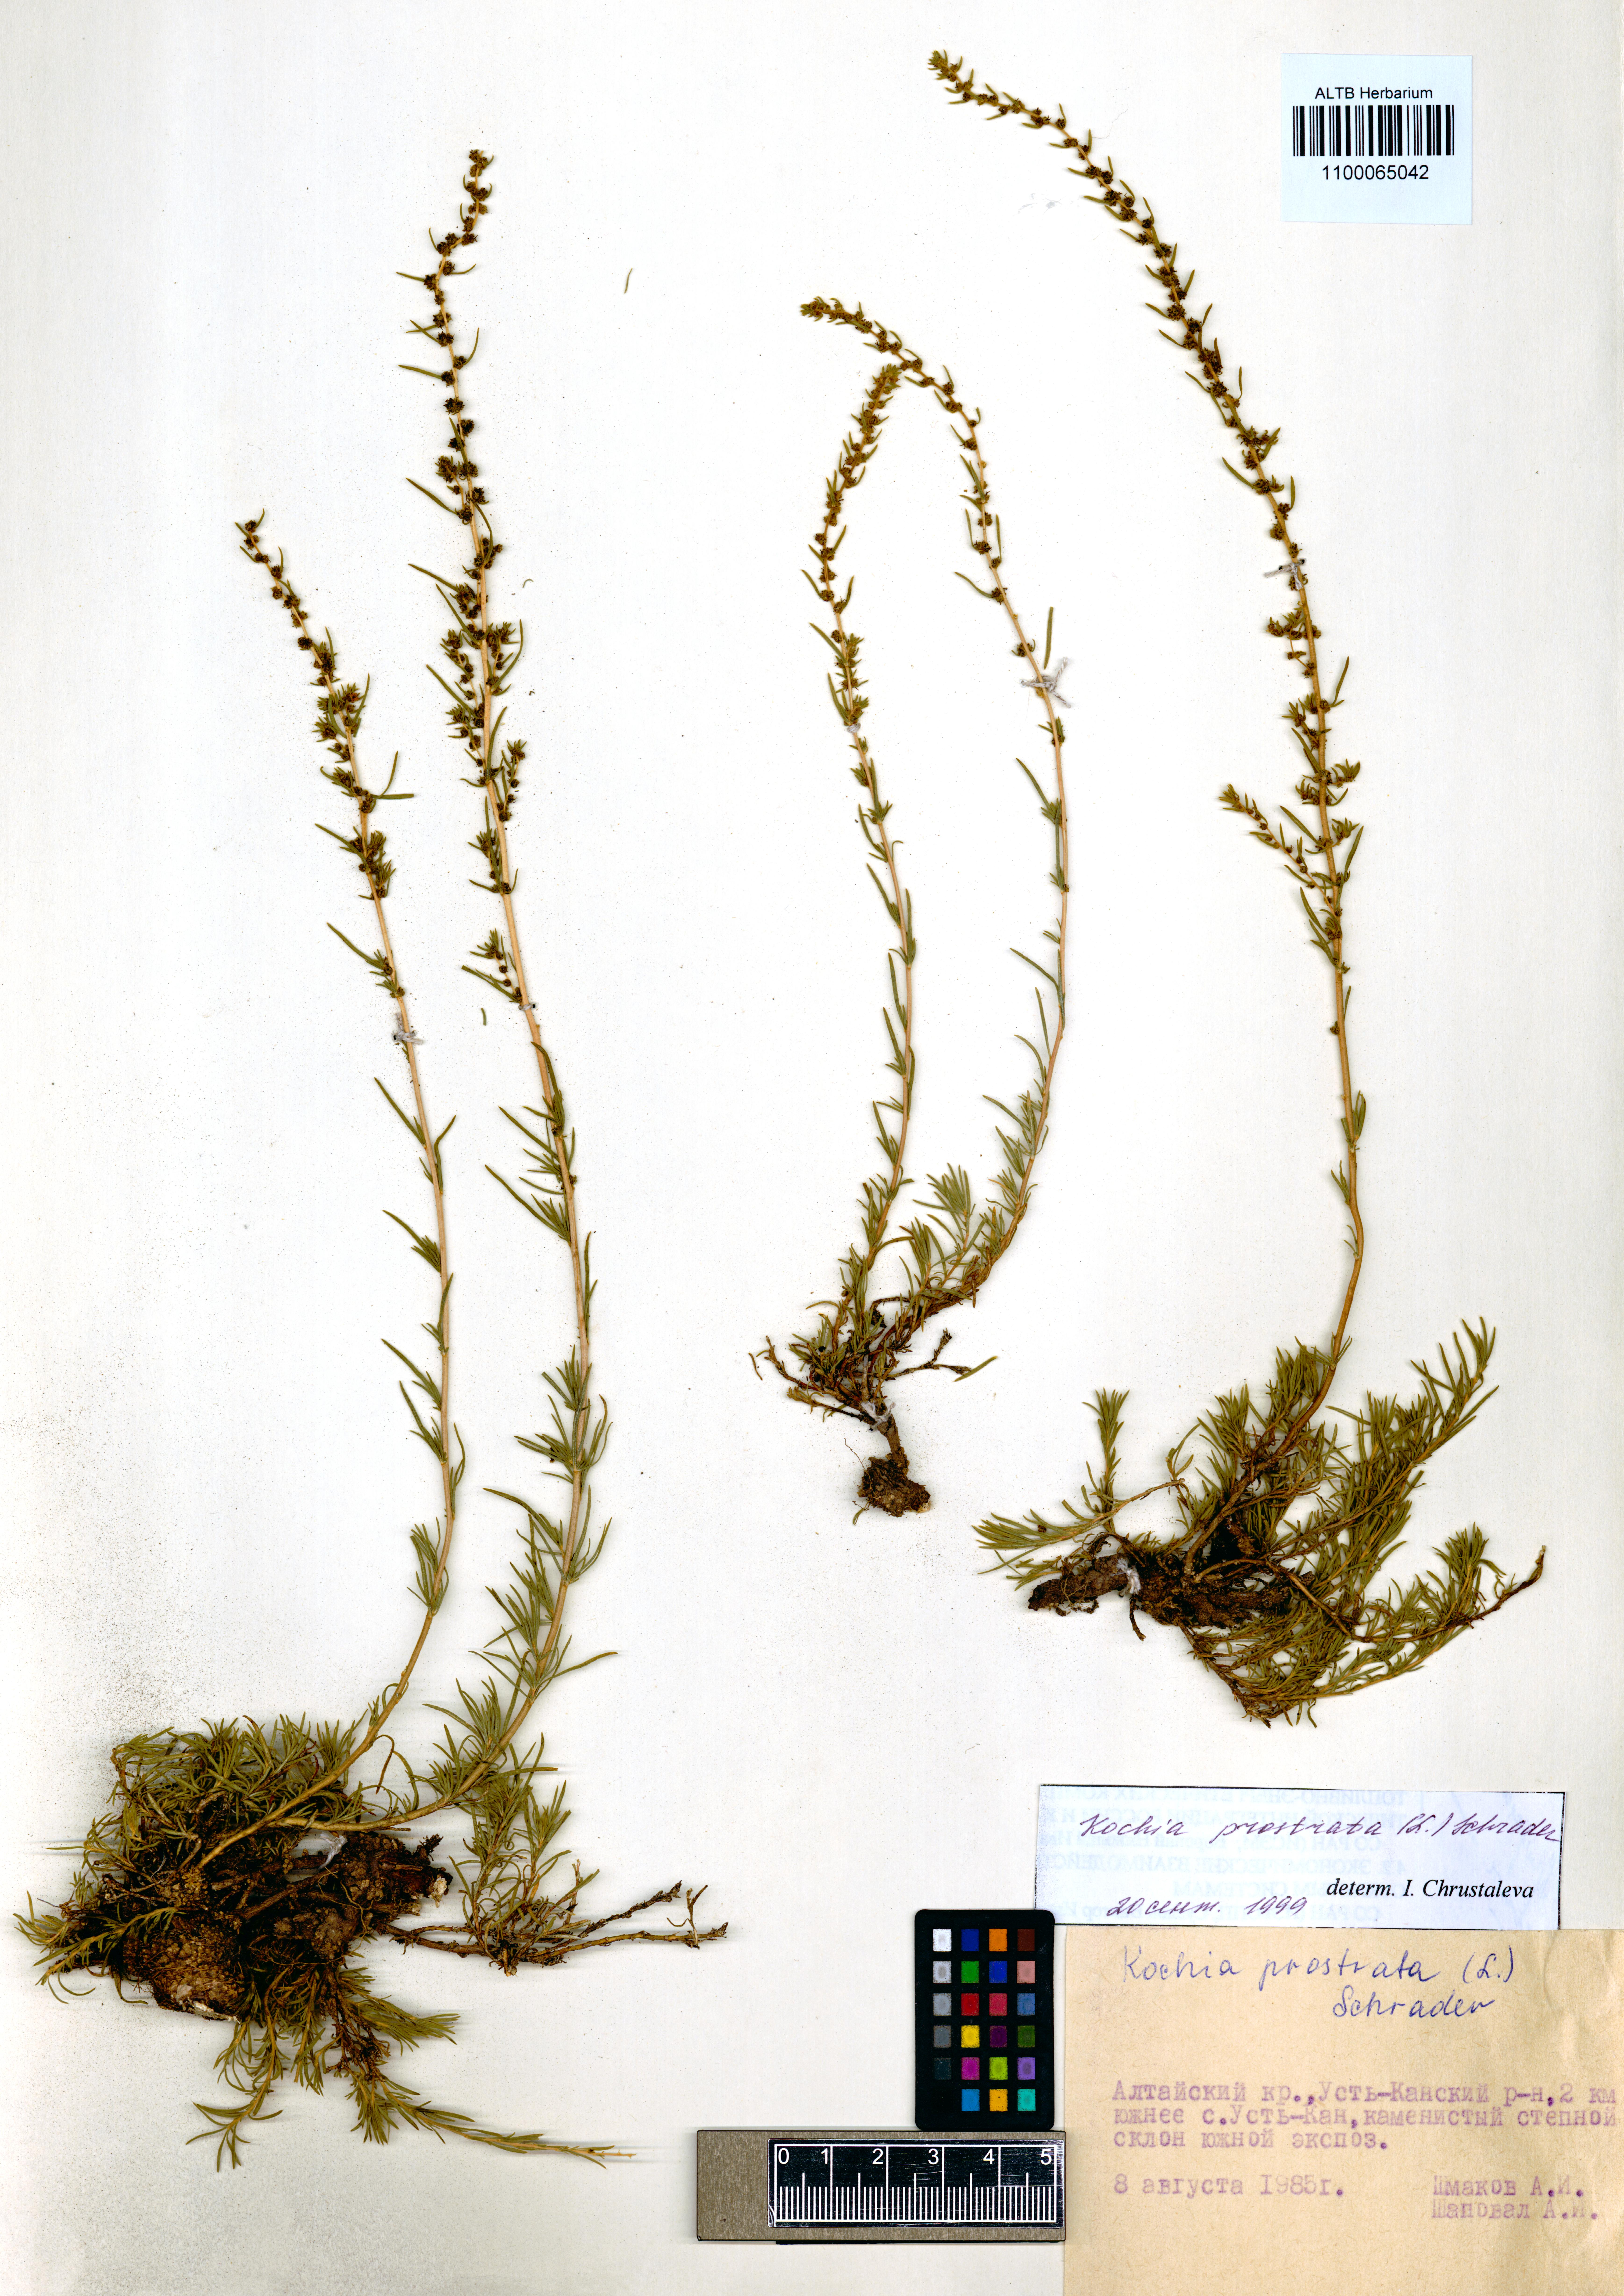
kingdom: Plantae
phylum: Tracheophyta
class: Magnoliopsida
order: Caryophyllales
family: Amaranthaceae
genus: Bassia
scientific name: Bassia prostrata
